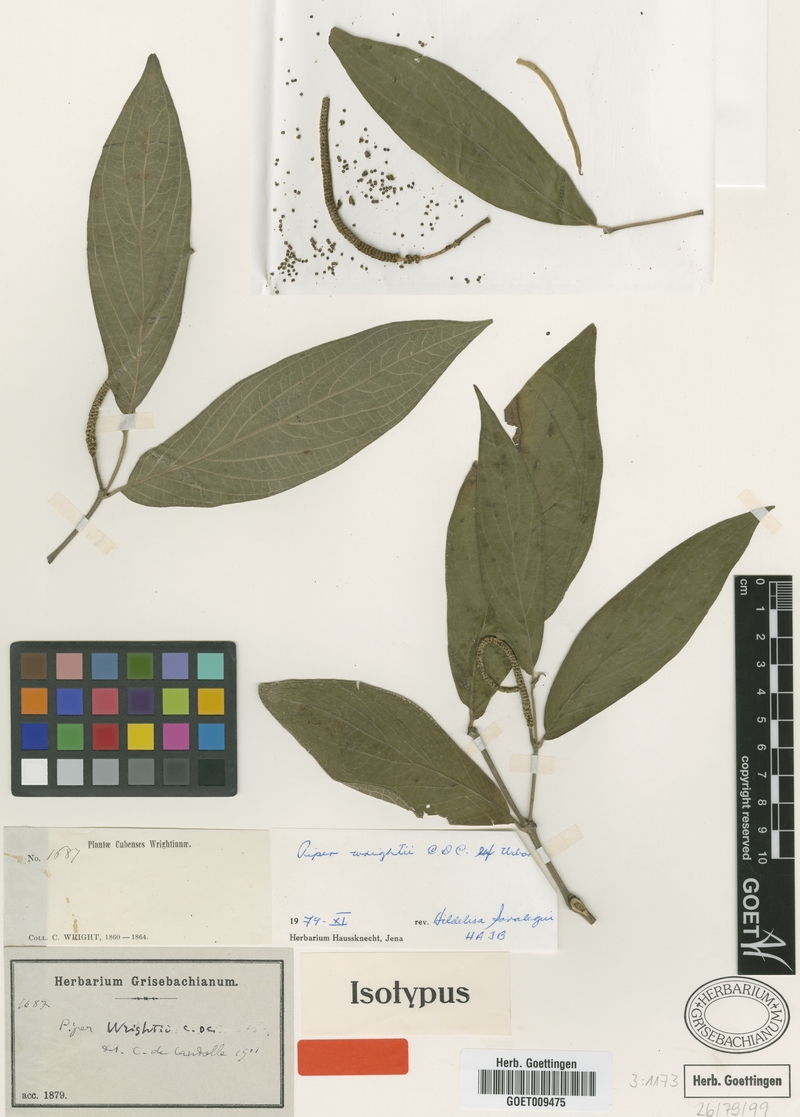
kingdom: Plantae
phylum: Tracheophyta
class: Magnoliopsida
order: Piperales
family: Piperaceae
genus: Piper
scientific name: Piper wrightii
